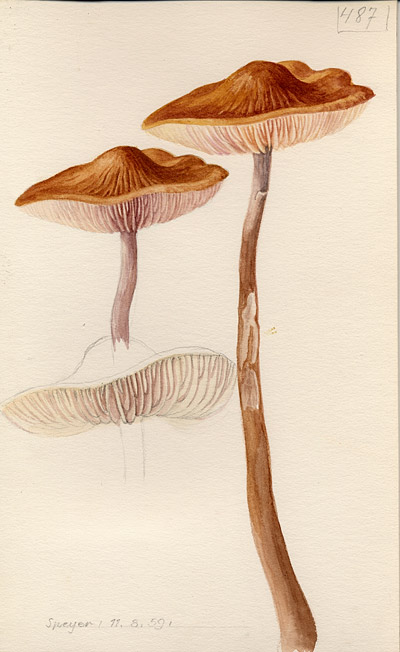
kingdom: Fungi
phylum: Basidiomycota
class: Agaricomycetes
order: Agaricales
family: Physalacriaceae
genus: Hymenopellis
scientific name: Hymenopellis radicata
